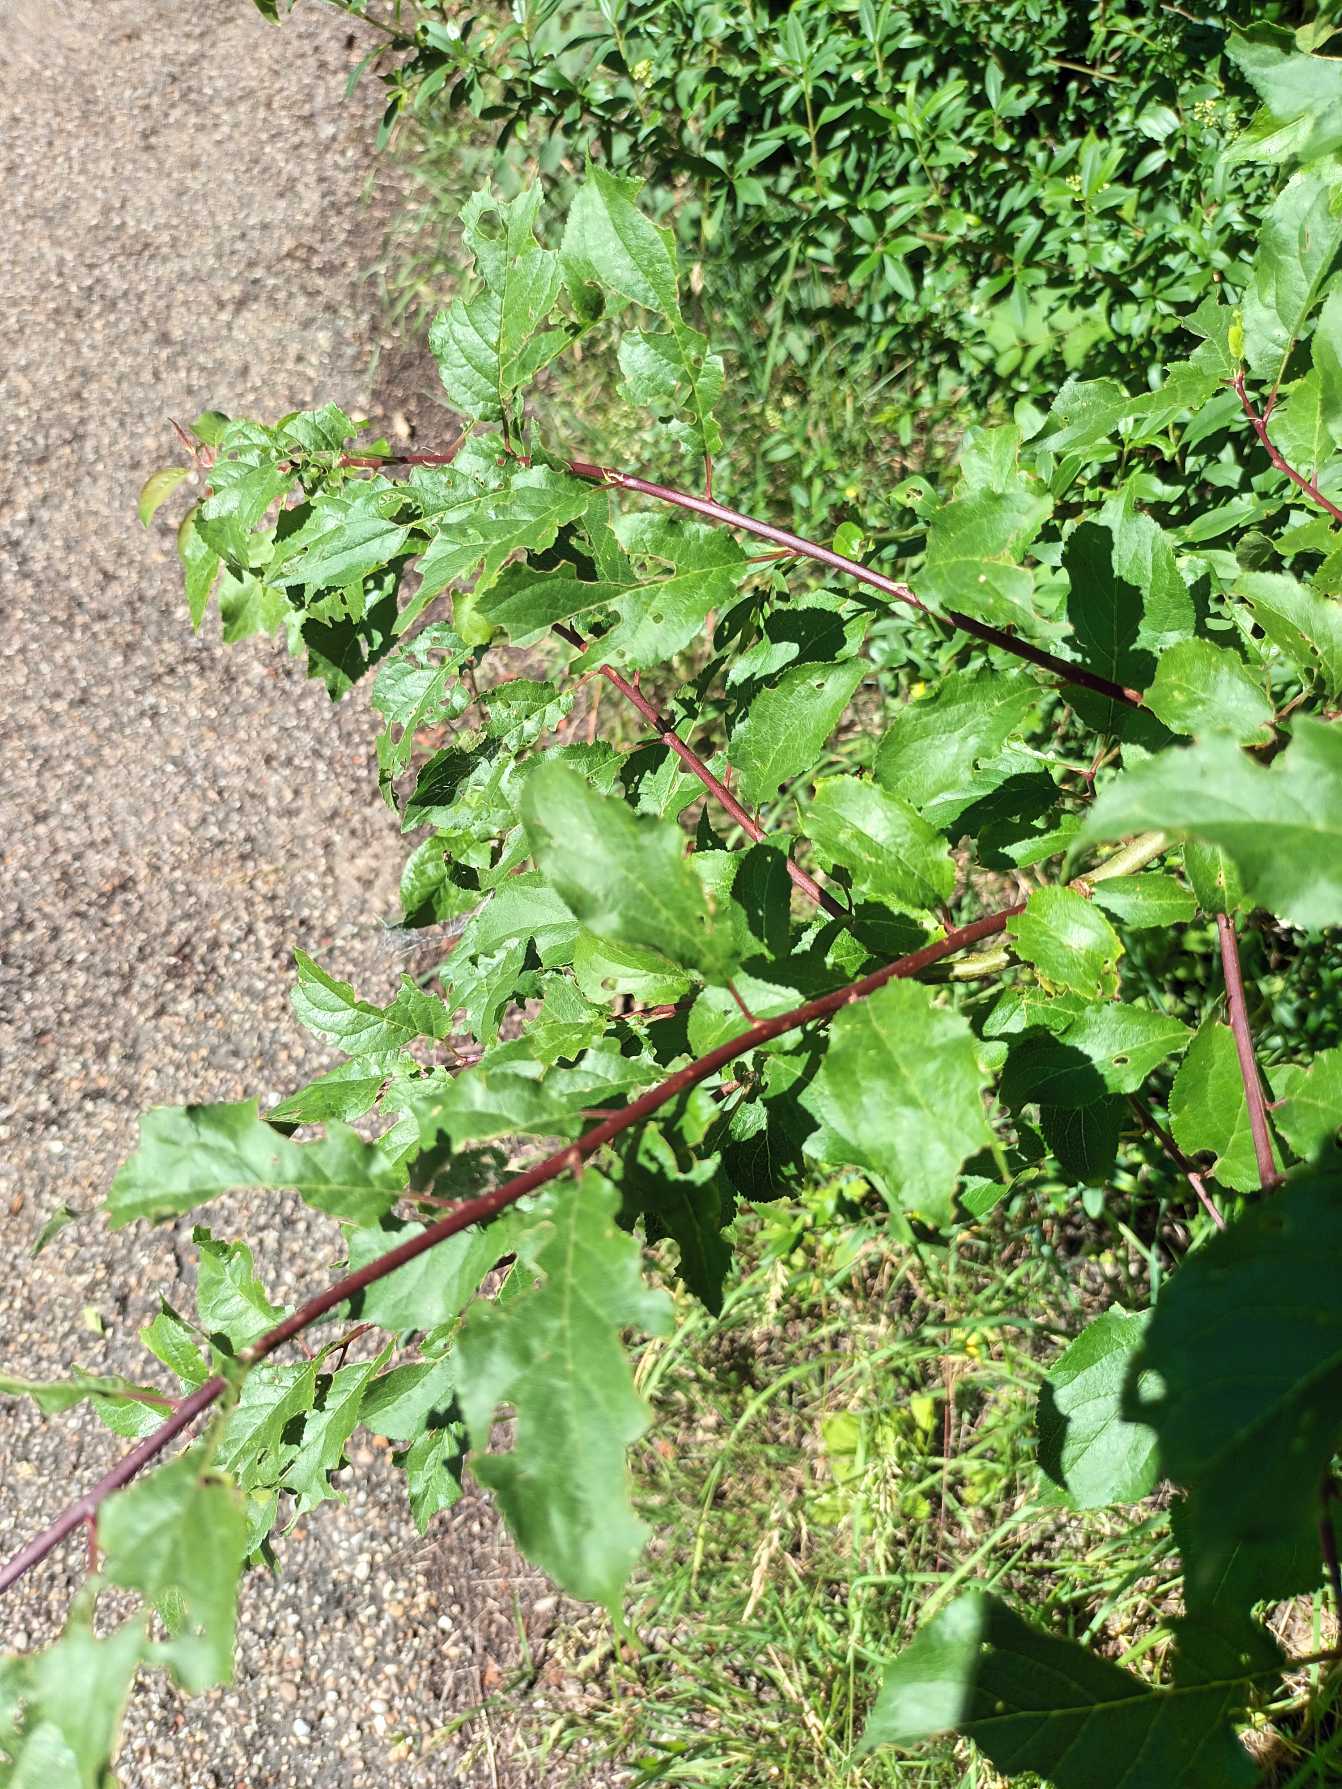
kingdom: Plantae
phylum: Tracheophyta
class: Magnoliopsida
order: Rosales
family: Rosaceae
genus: Prunus
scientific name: Prunus cerasifera
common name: Mirabel
